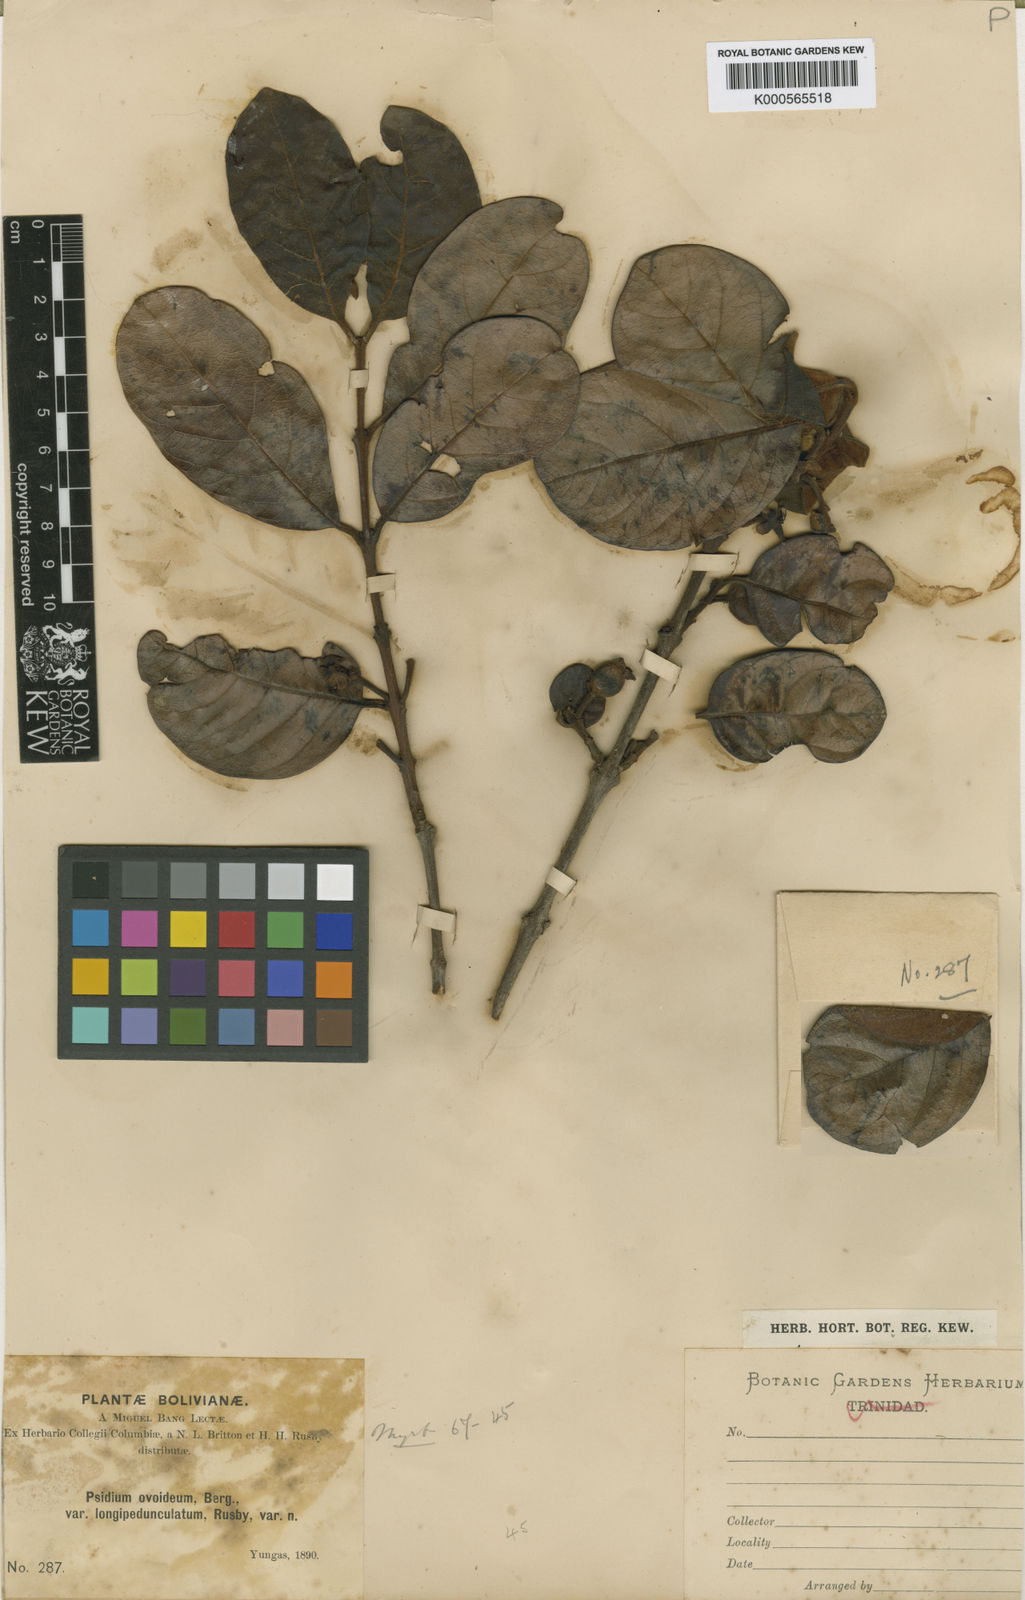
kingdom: Plantae
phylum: Tracheophyta
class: Magnoliopsida
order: Myrtales
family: Myrtaceae
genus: Psidium
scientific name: Psidium
